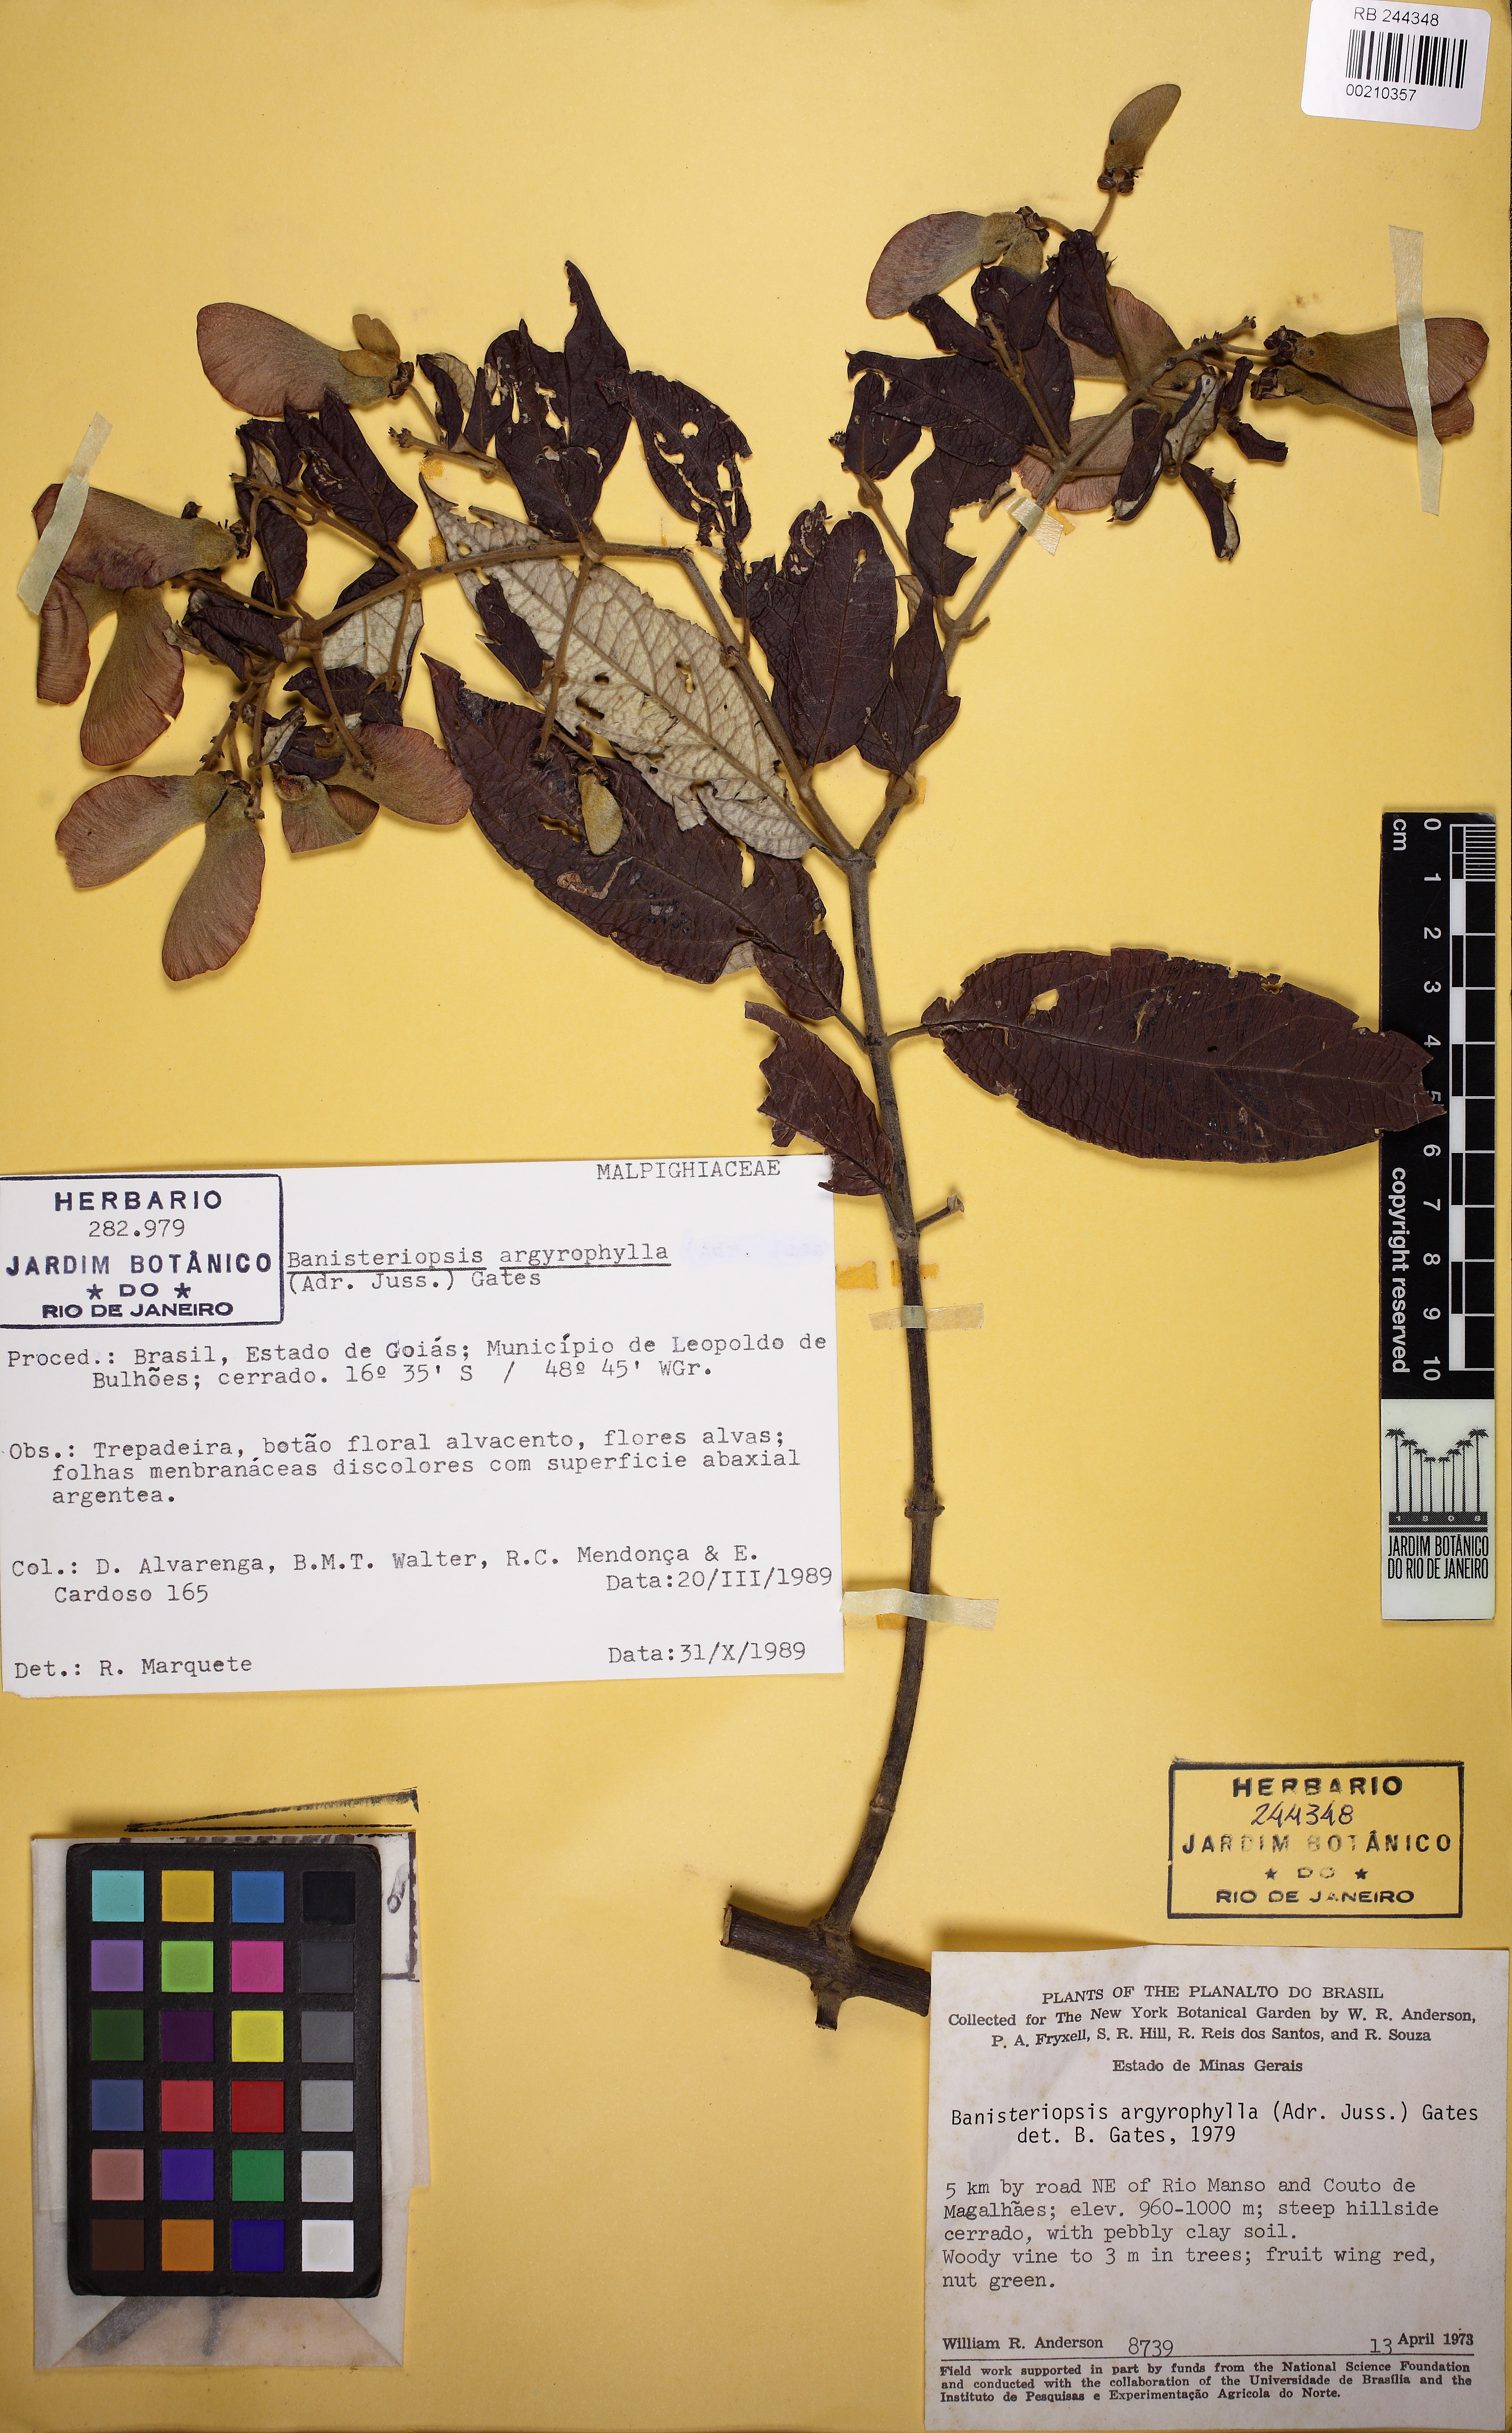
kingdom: Plantae
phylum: Tracheophyta
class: Magnoliopsida
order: Malpighiales
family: Malpighiaceae
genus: Banisteriopsis
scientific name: Banisteriopsis argyrophylla
